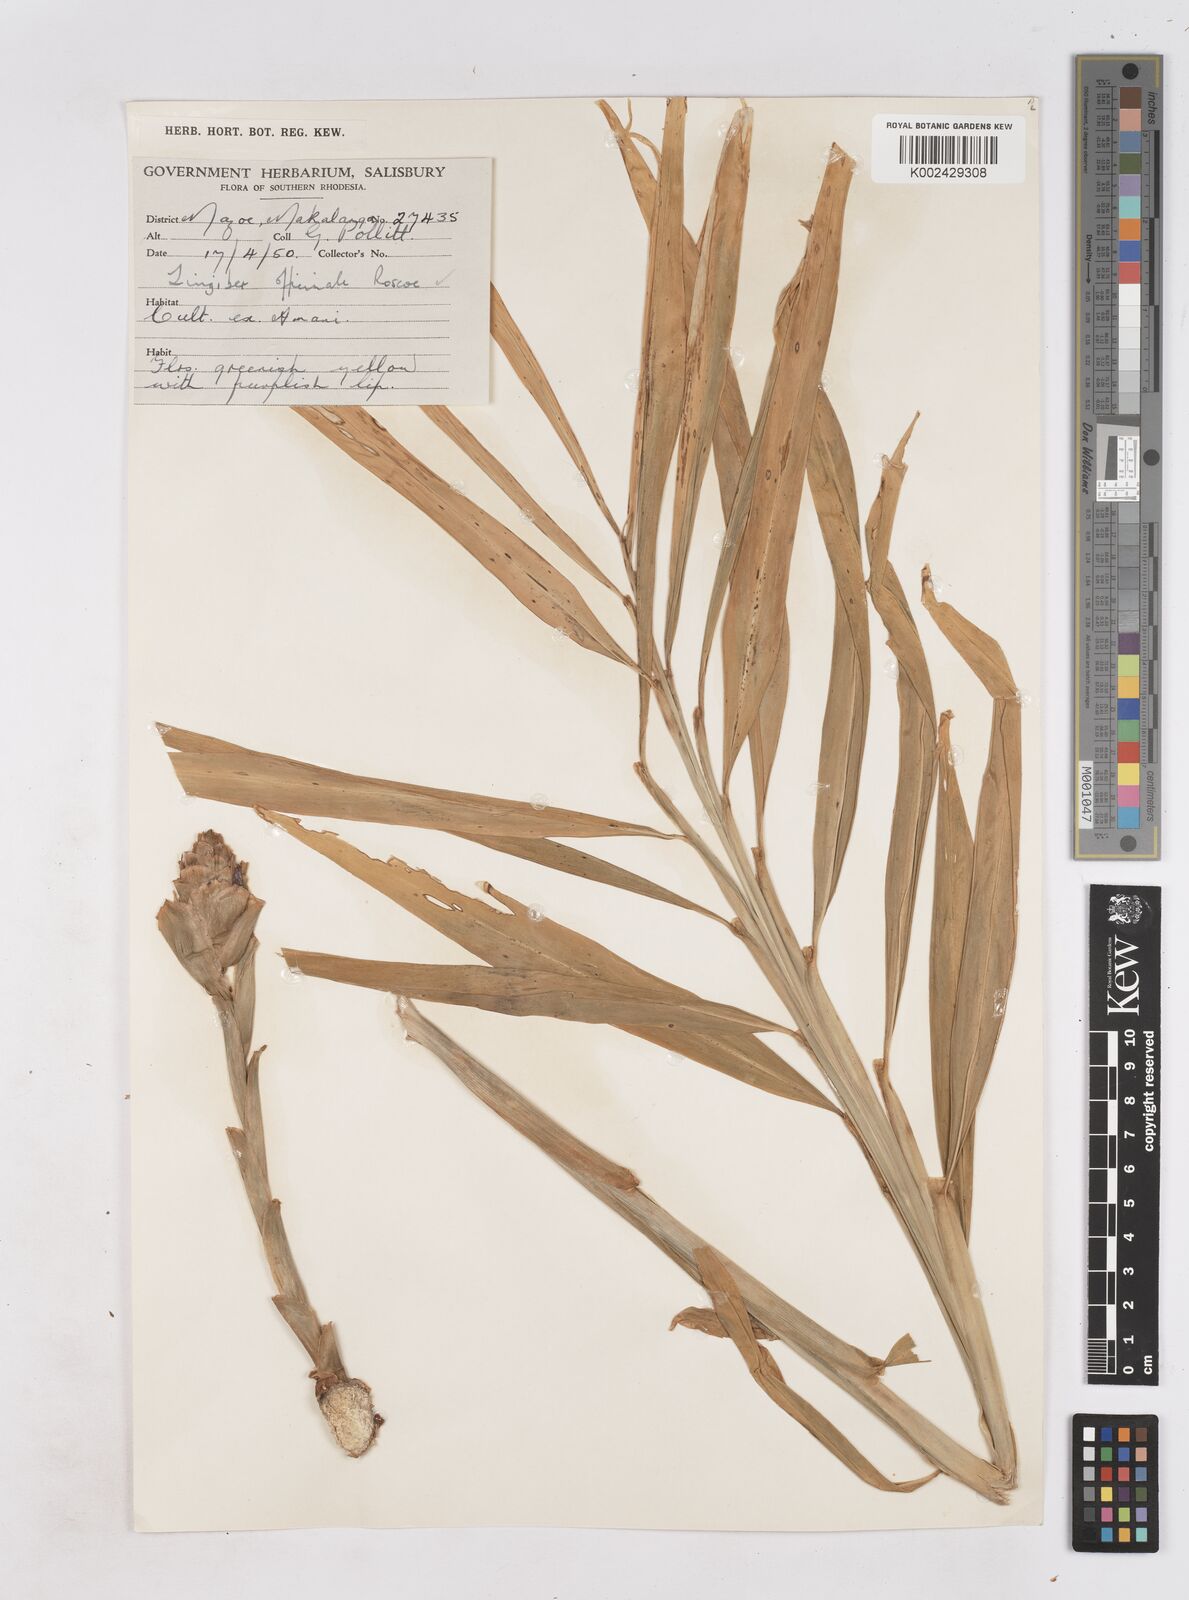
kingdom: Plantae
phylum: Tracheophyta
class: Liliopsida
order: Zingiberales
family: Zingiberaceae
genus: Zingiber
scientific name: Zingiber officinale
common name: Ginger
